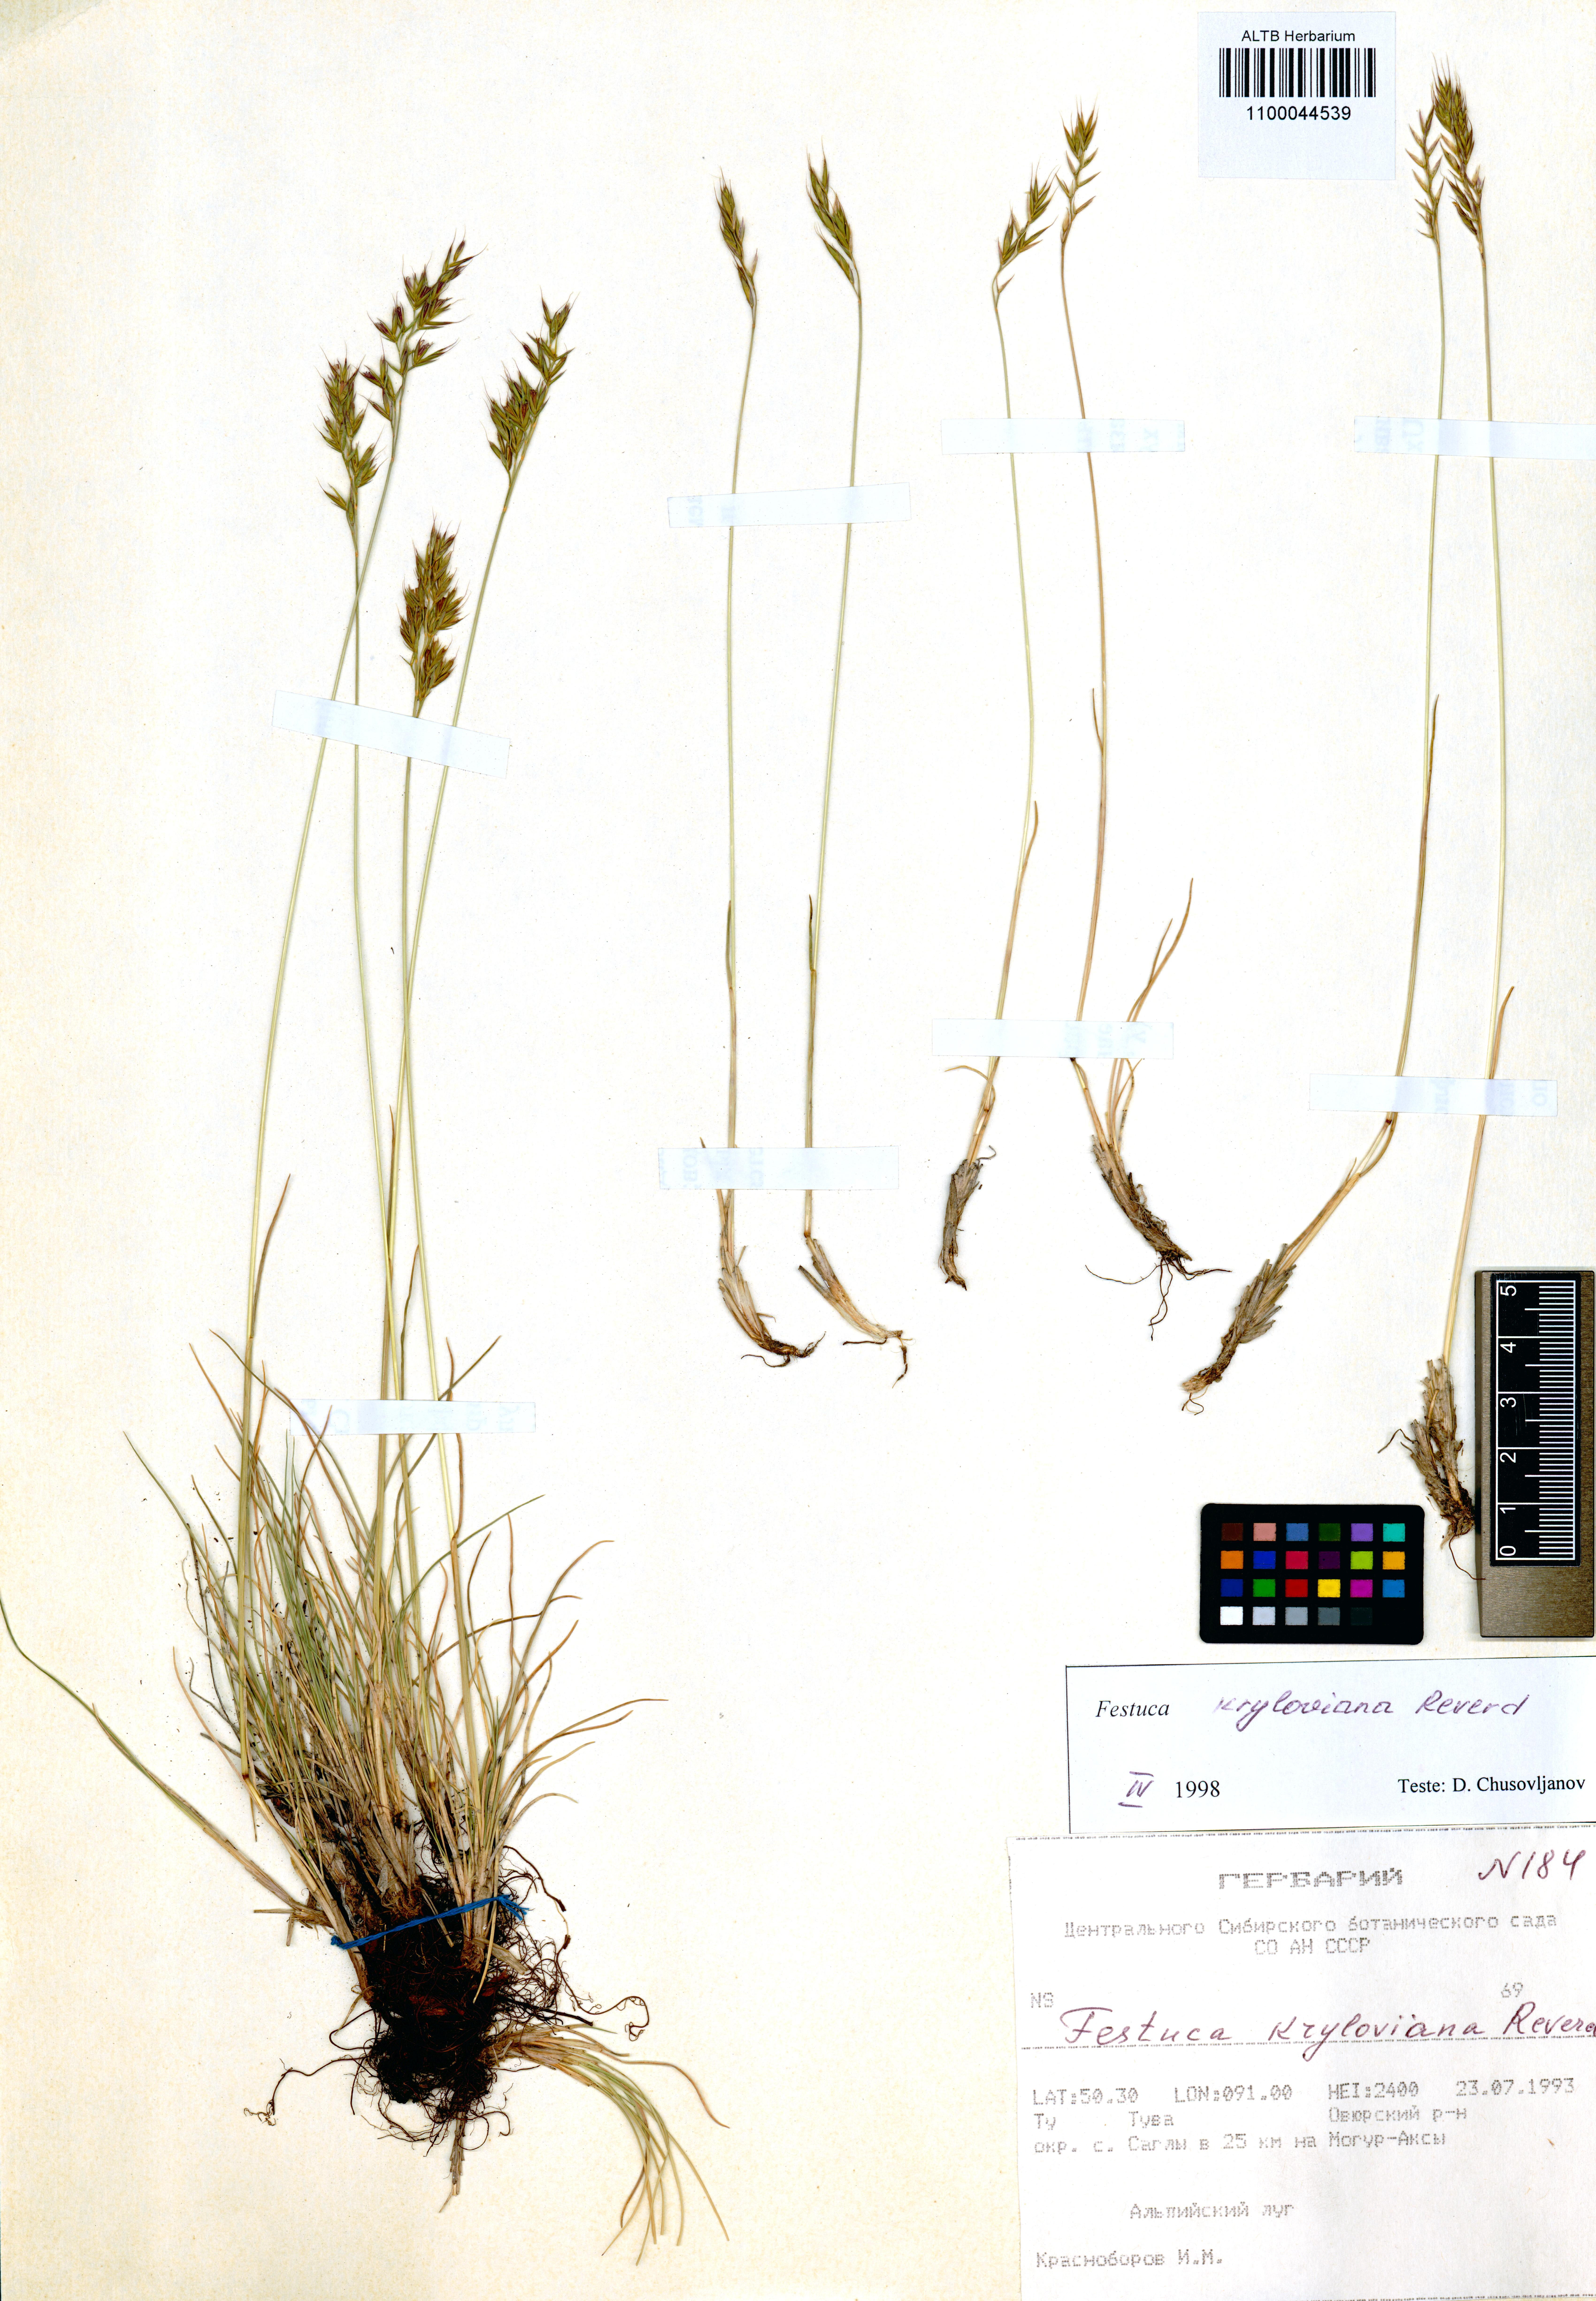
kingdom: Plantae
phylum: Tracheophyta
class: Liliopsida
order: Poales
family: Poaceae
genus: Festuca
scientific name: Festuca kryloviana
